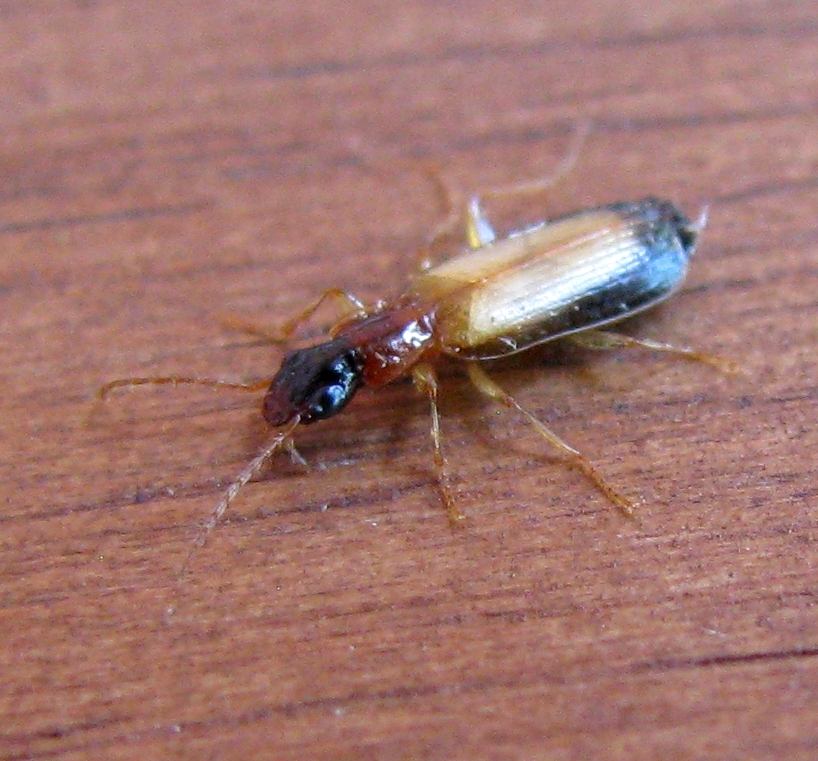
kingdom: Animalia
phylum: Arthropoda
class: Insecta
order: Coleoptera
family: Carabidae
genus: Dromius
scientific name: Dromius schneideri
